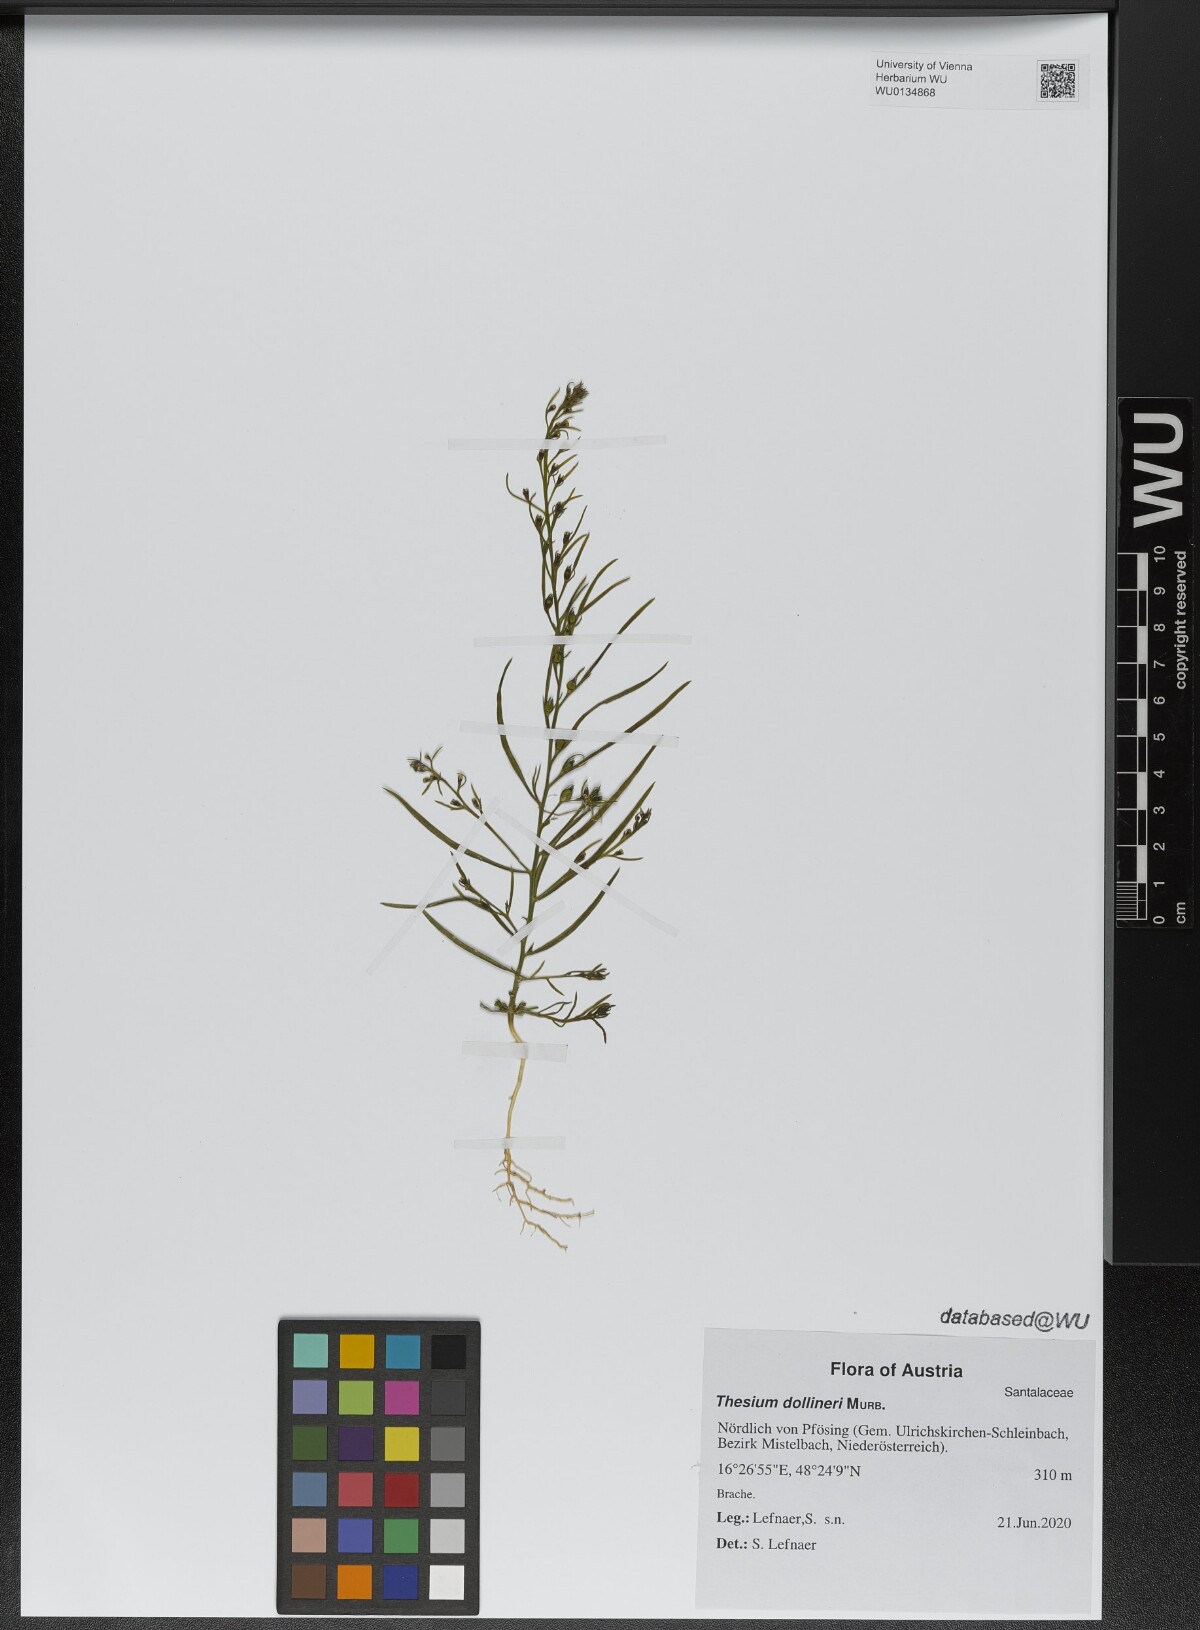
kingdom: Plantae
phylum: Tracheophyta
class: Magnoliopsida
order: Santalales
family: Thesiaceae
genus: Thesium
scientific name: Thesium dollineri
